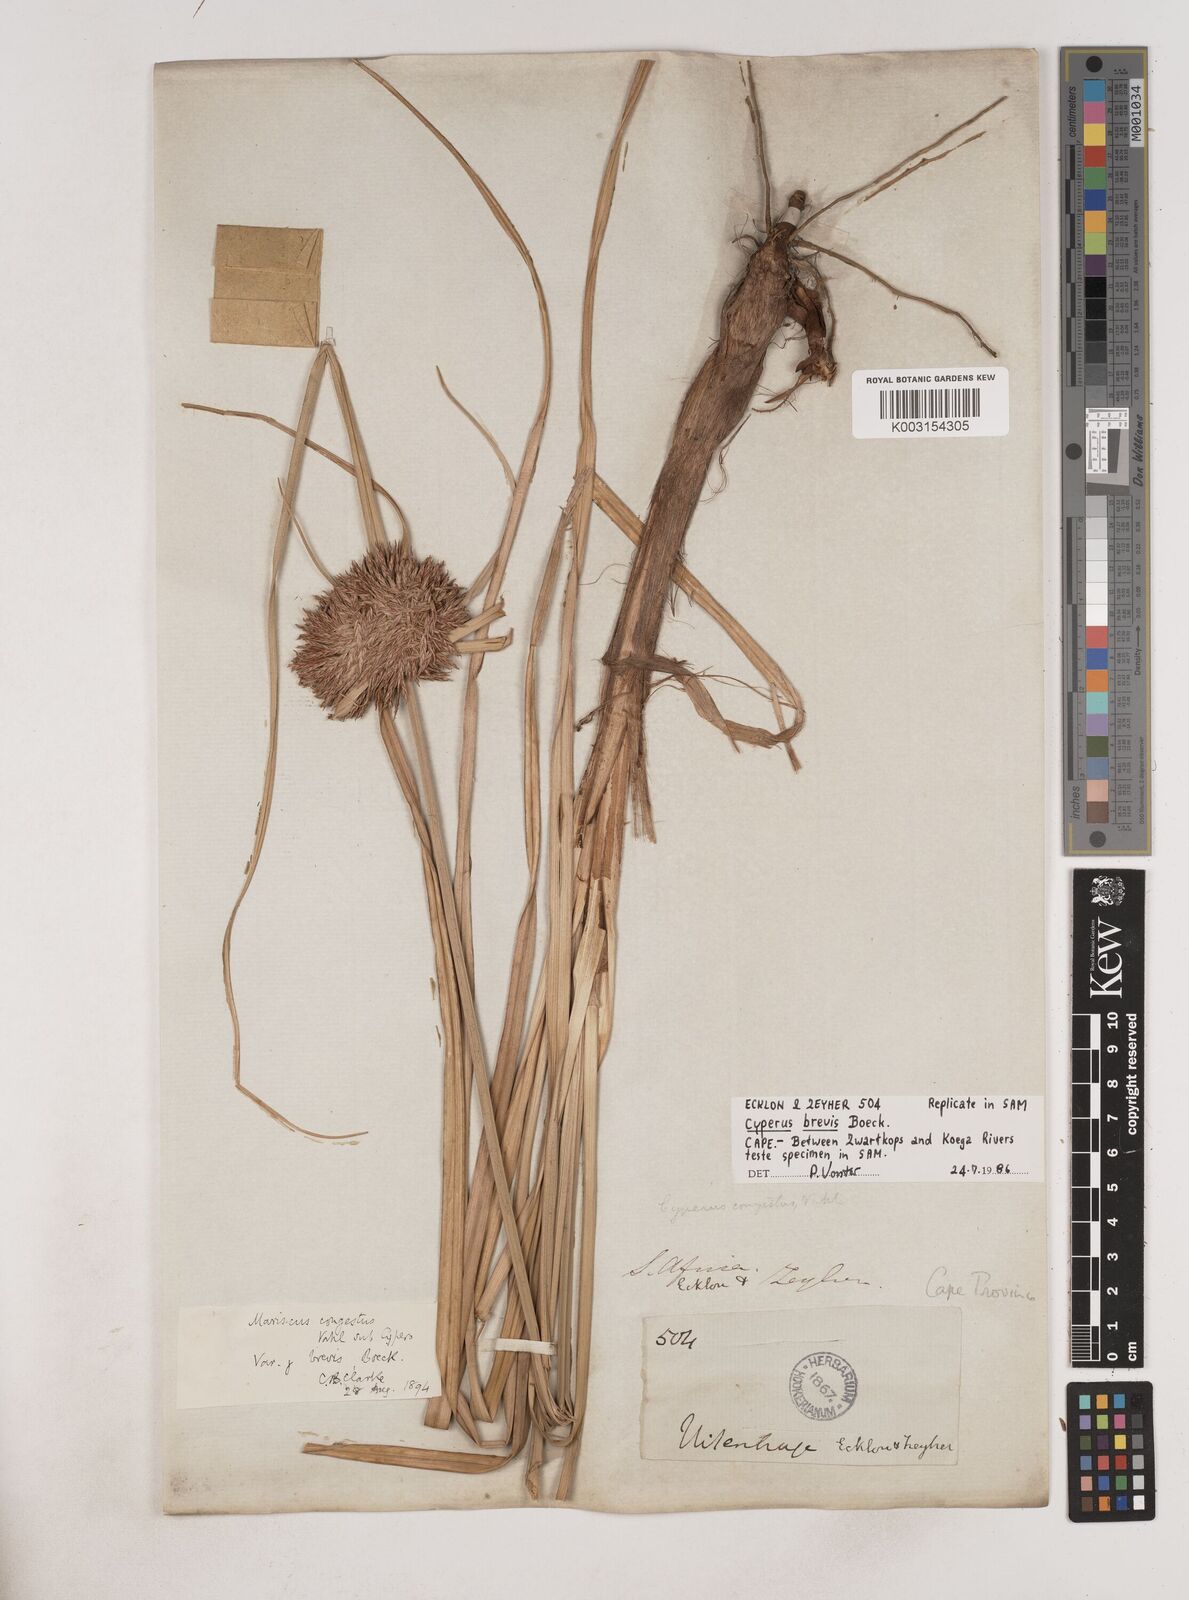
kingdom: Plantae
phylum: Tracheophyta
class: Liliopsida
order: Poales
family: Cyperaceae
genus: Cyperus
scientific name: Cyperus congestus
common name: Dense flat sedge
